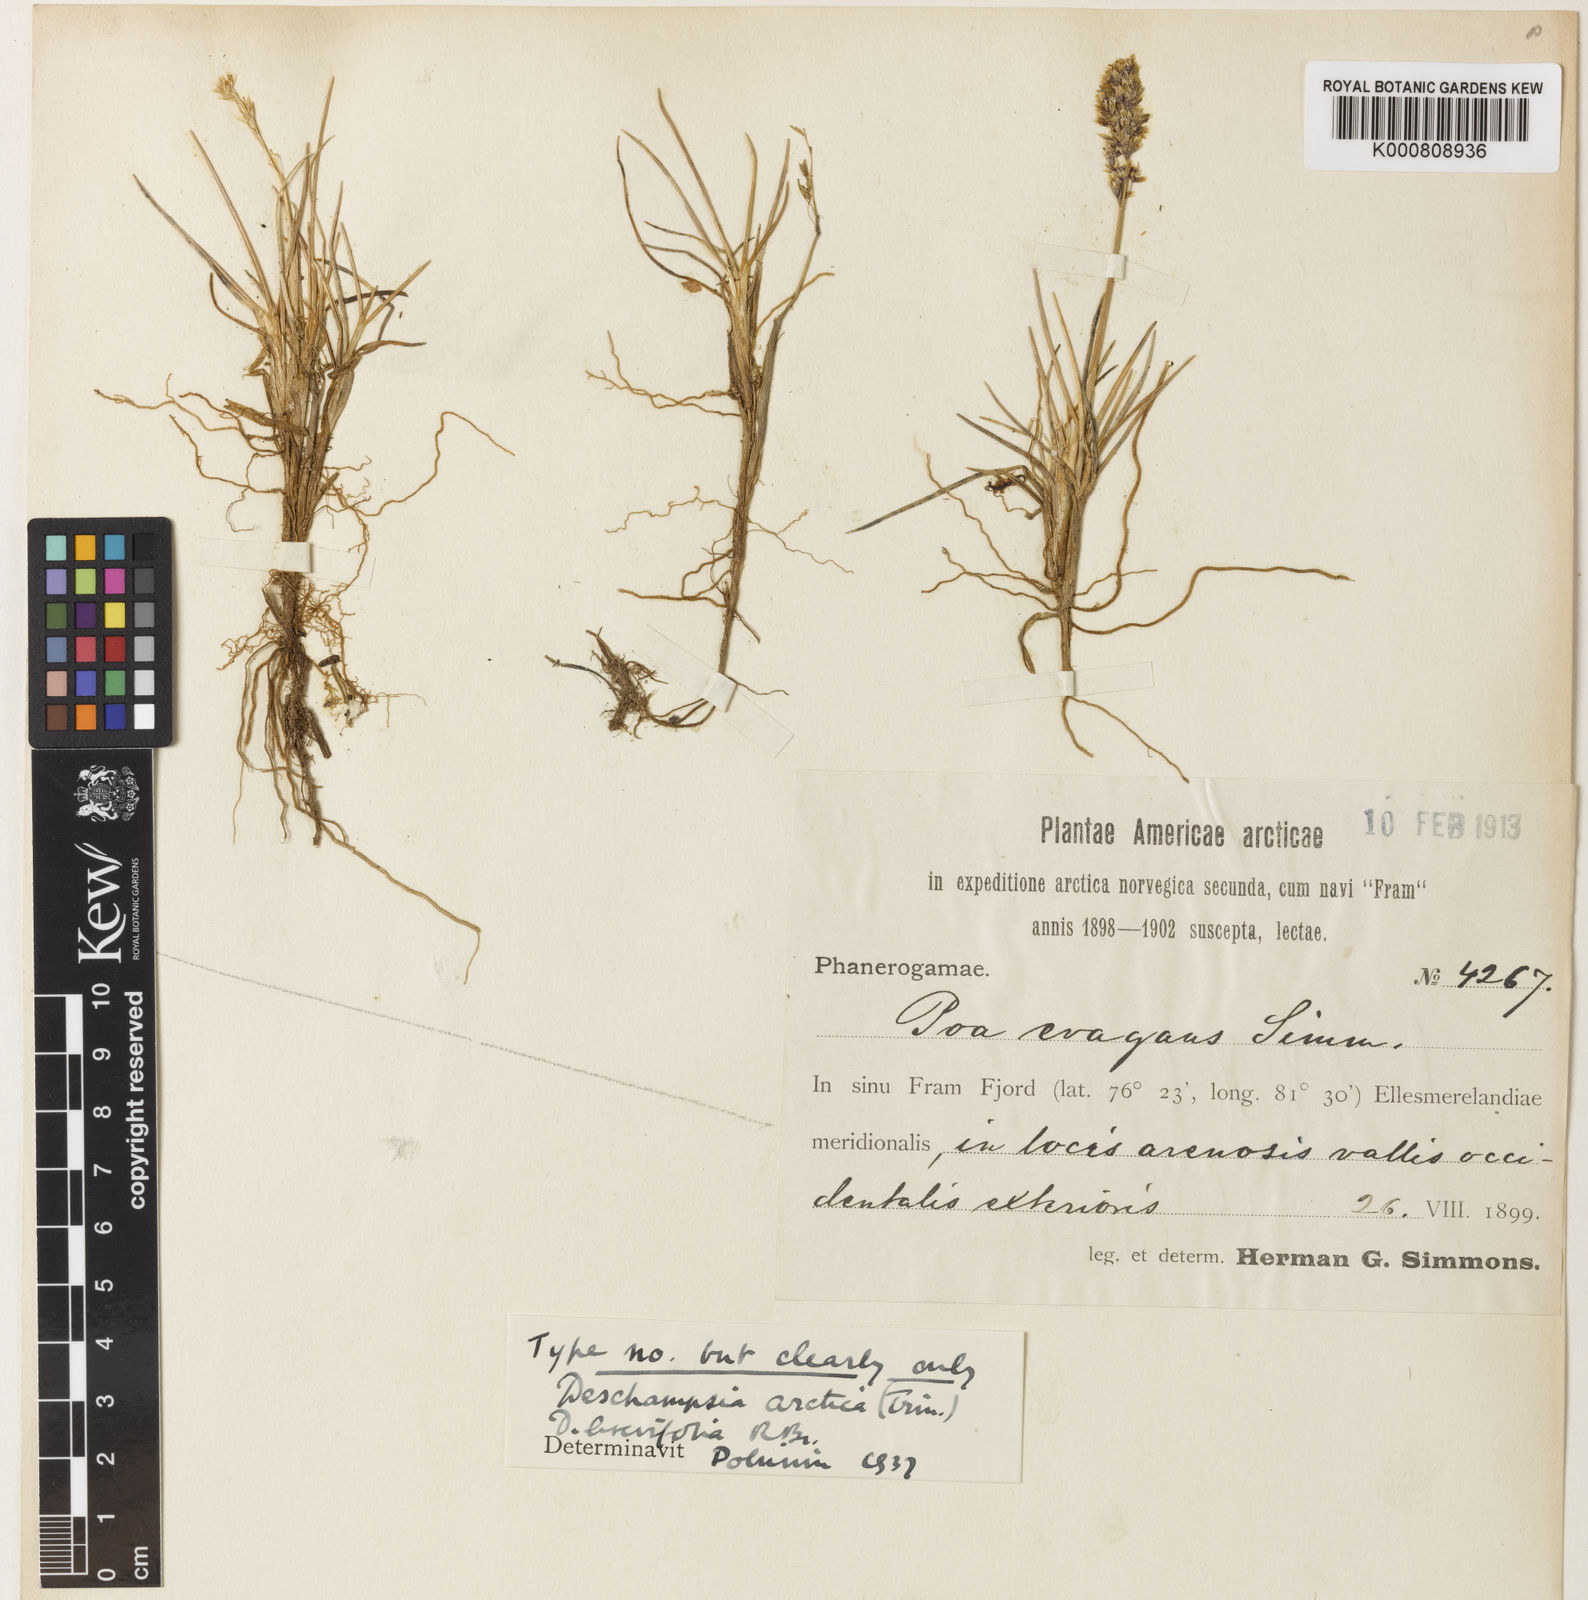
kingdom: Plantae
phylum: Tracheophyta
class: Liliopsida
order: Poales
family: Poaceae
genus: Deschampsia
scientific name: Deschampsia
